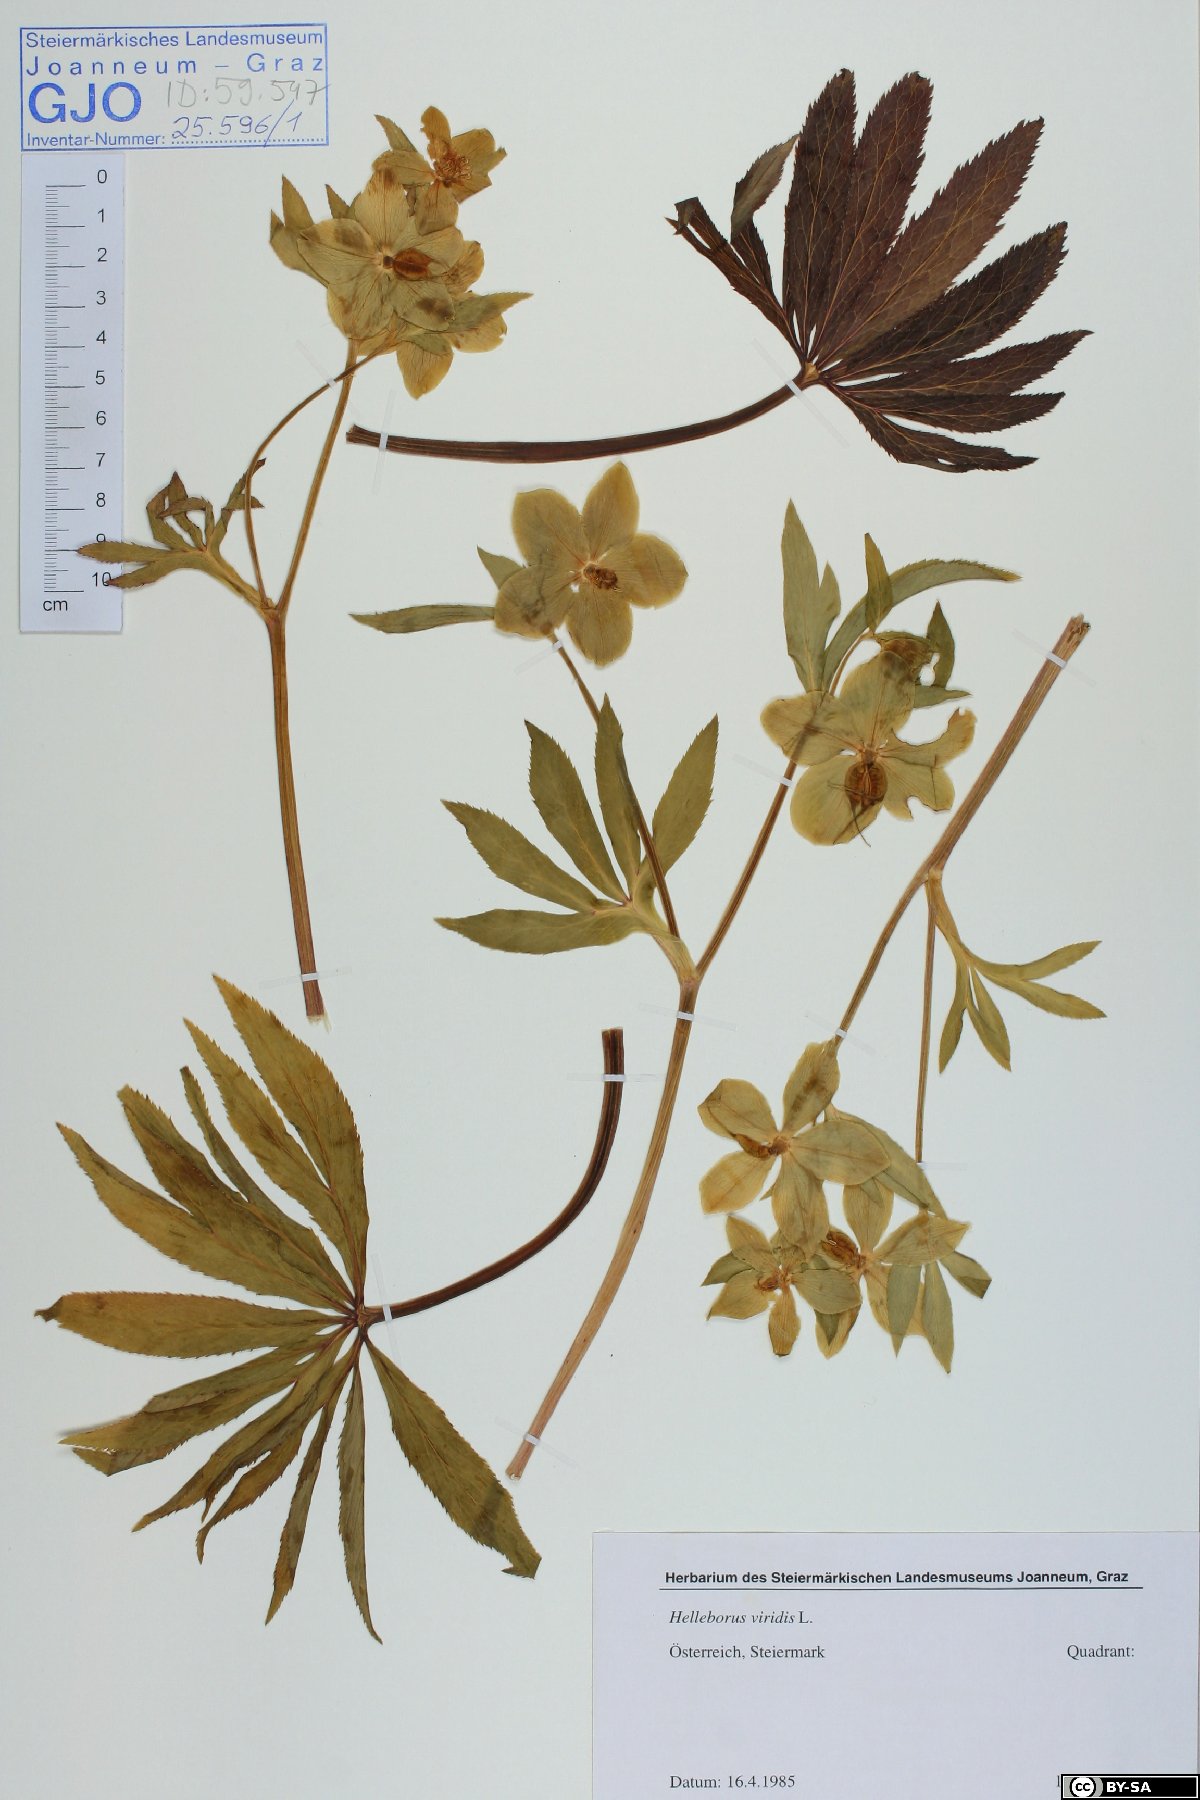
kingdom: Plantae
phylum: Tracheophyta
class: Magnoliopsida
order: Ranunculales
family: Ranunculaceae
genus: Helleborus
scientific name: Helleborus viridis
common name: Green hellebore
